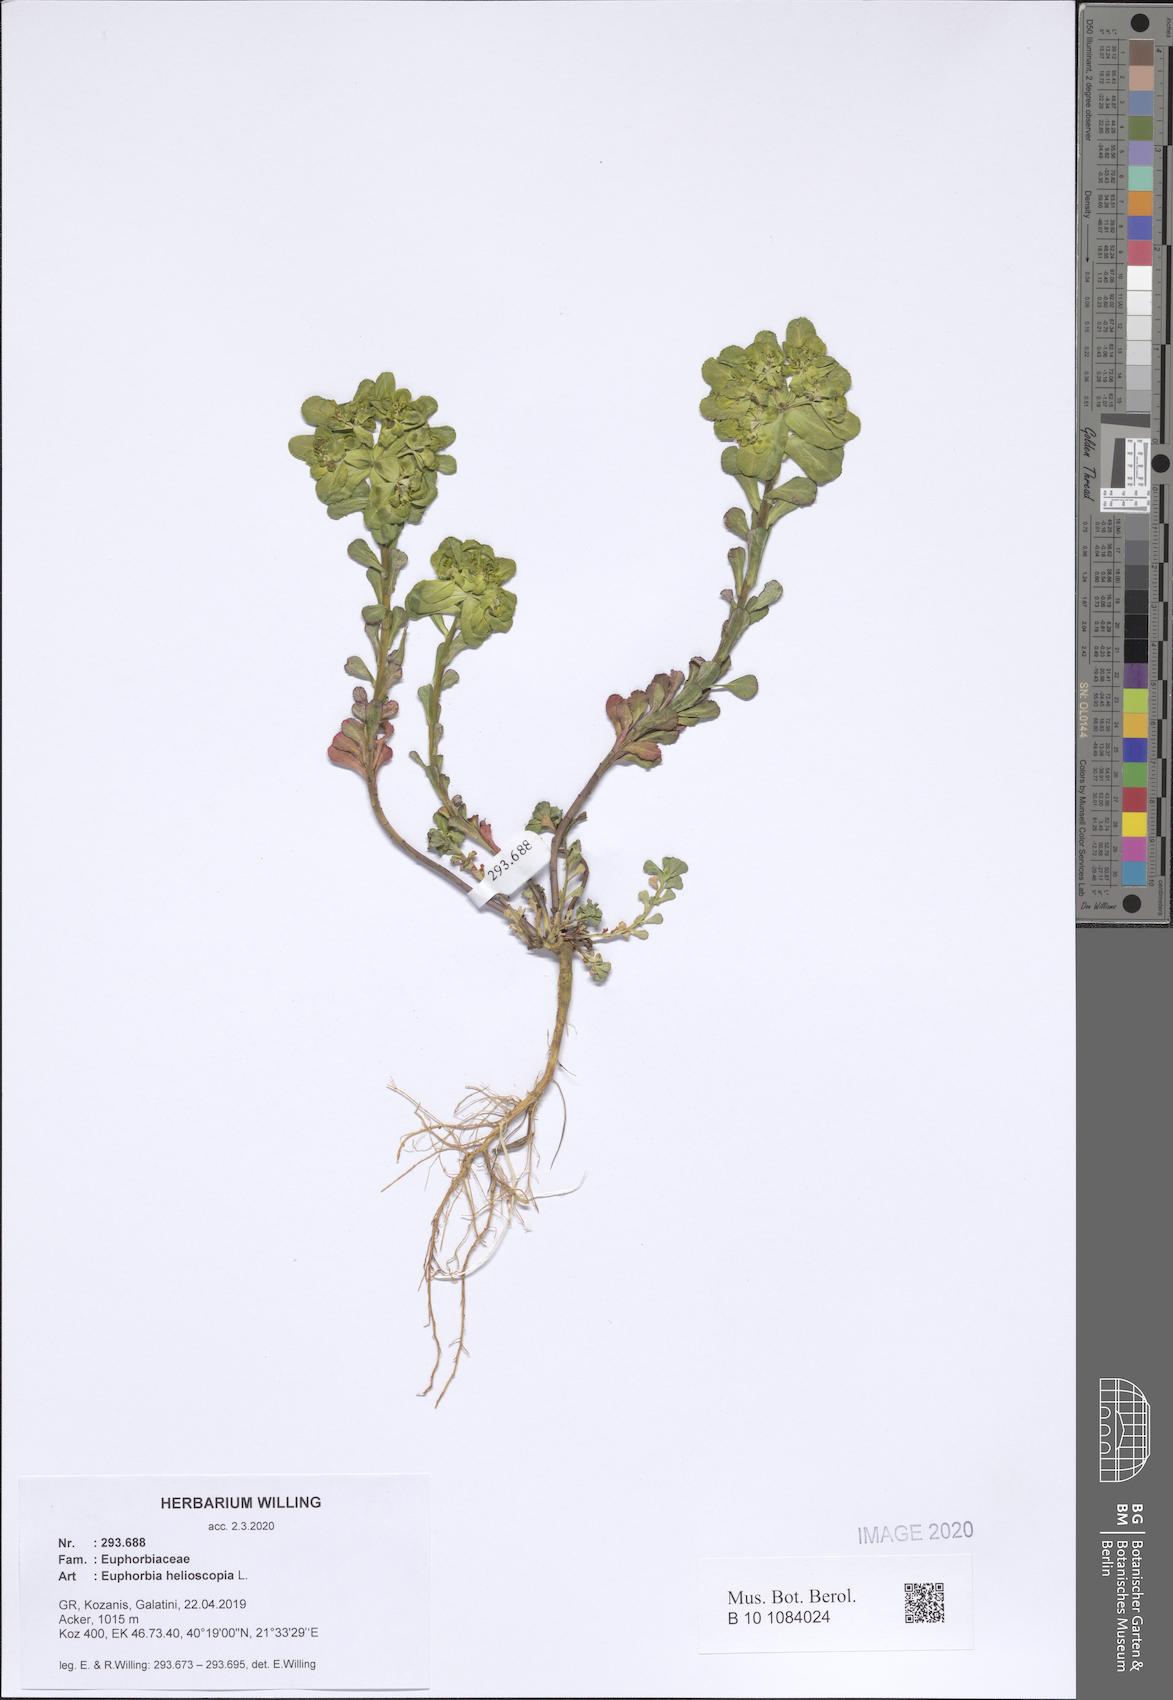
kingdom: Plantae
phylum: Tracheophyta
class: Magnoliopsida
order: Malpighiales
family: Euphorbiaceae
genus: Euphorbia
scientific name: Euphorbia helioscopia
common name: Sun spurge
